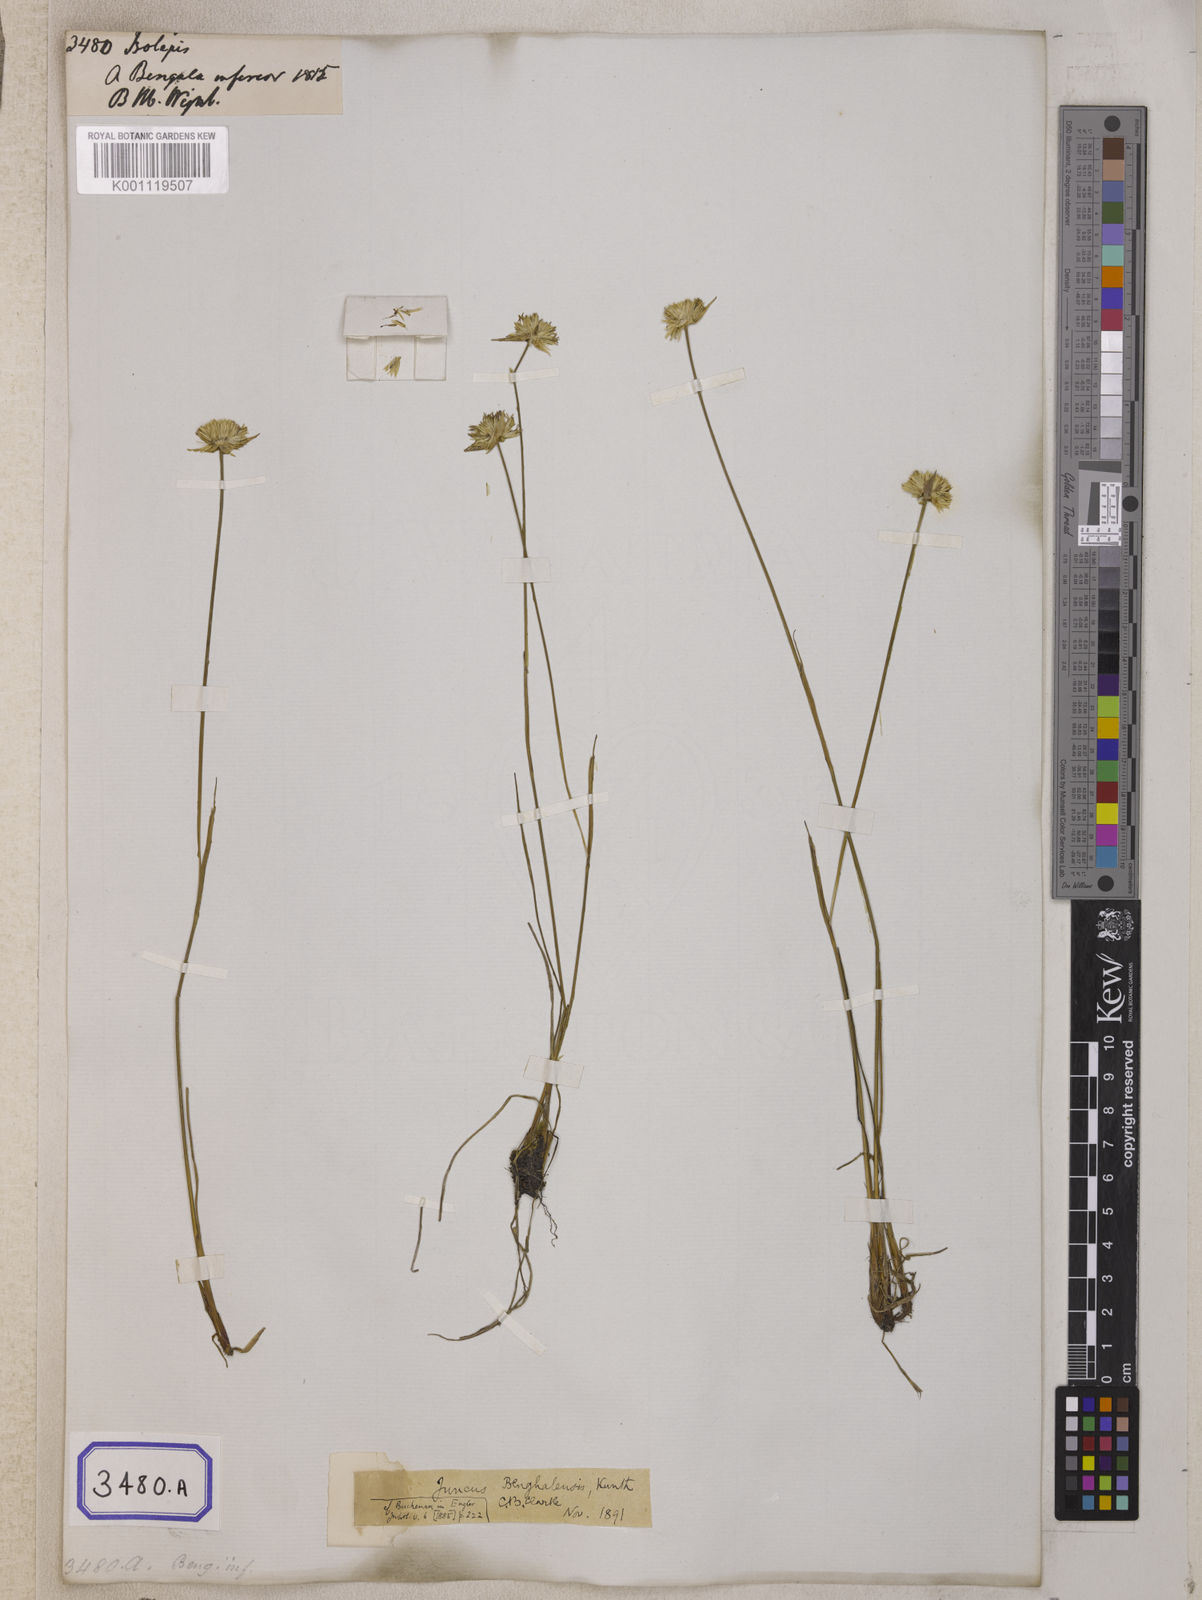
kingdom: Plantae
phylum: Tracheophyta
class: Liliopsida
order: Poales
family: Cyperaceae
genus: Isolepis
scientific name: Isolepis
